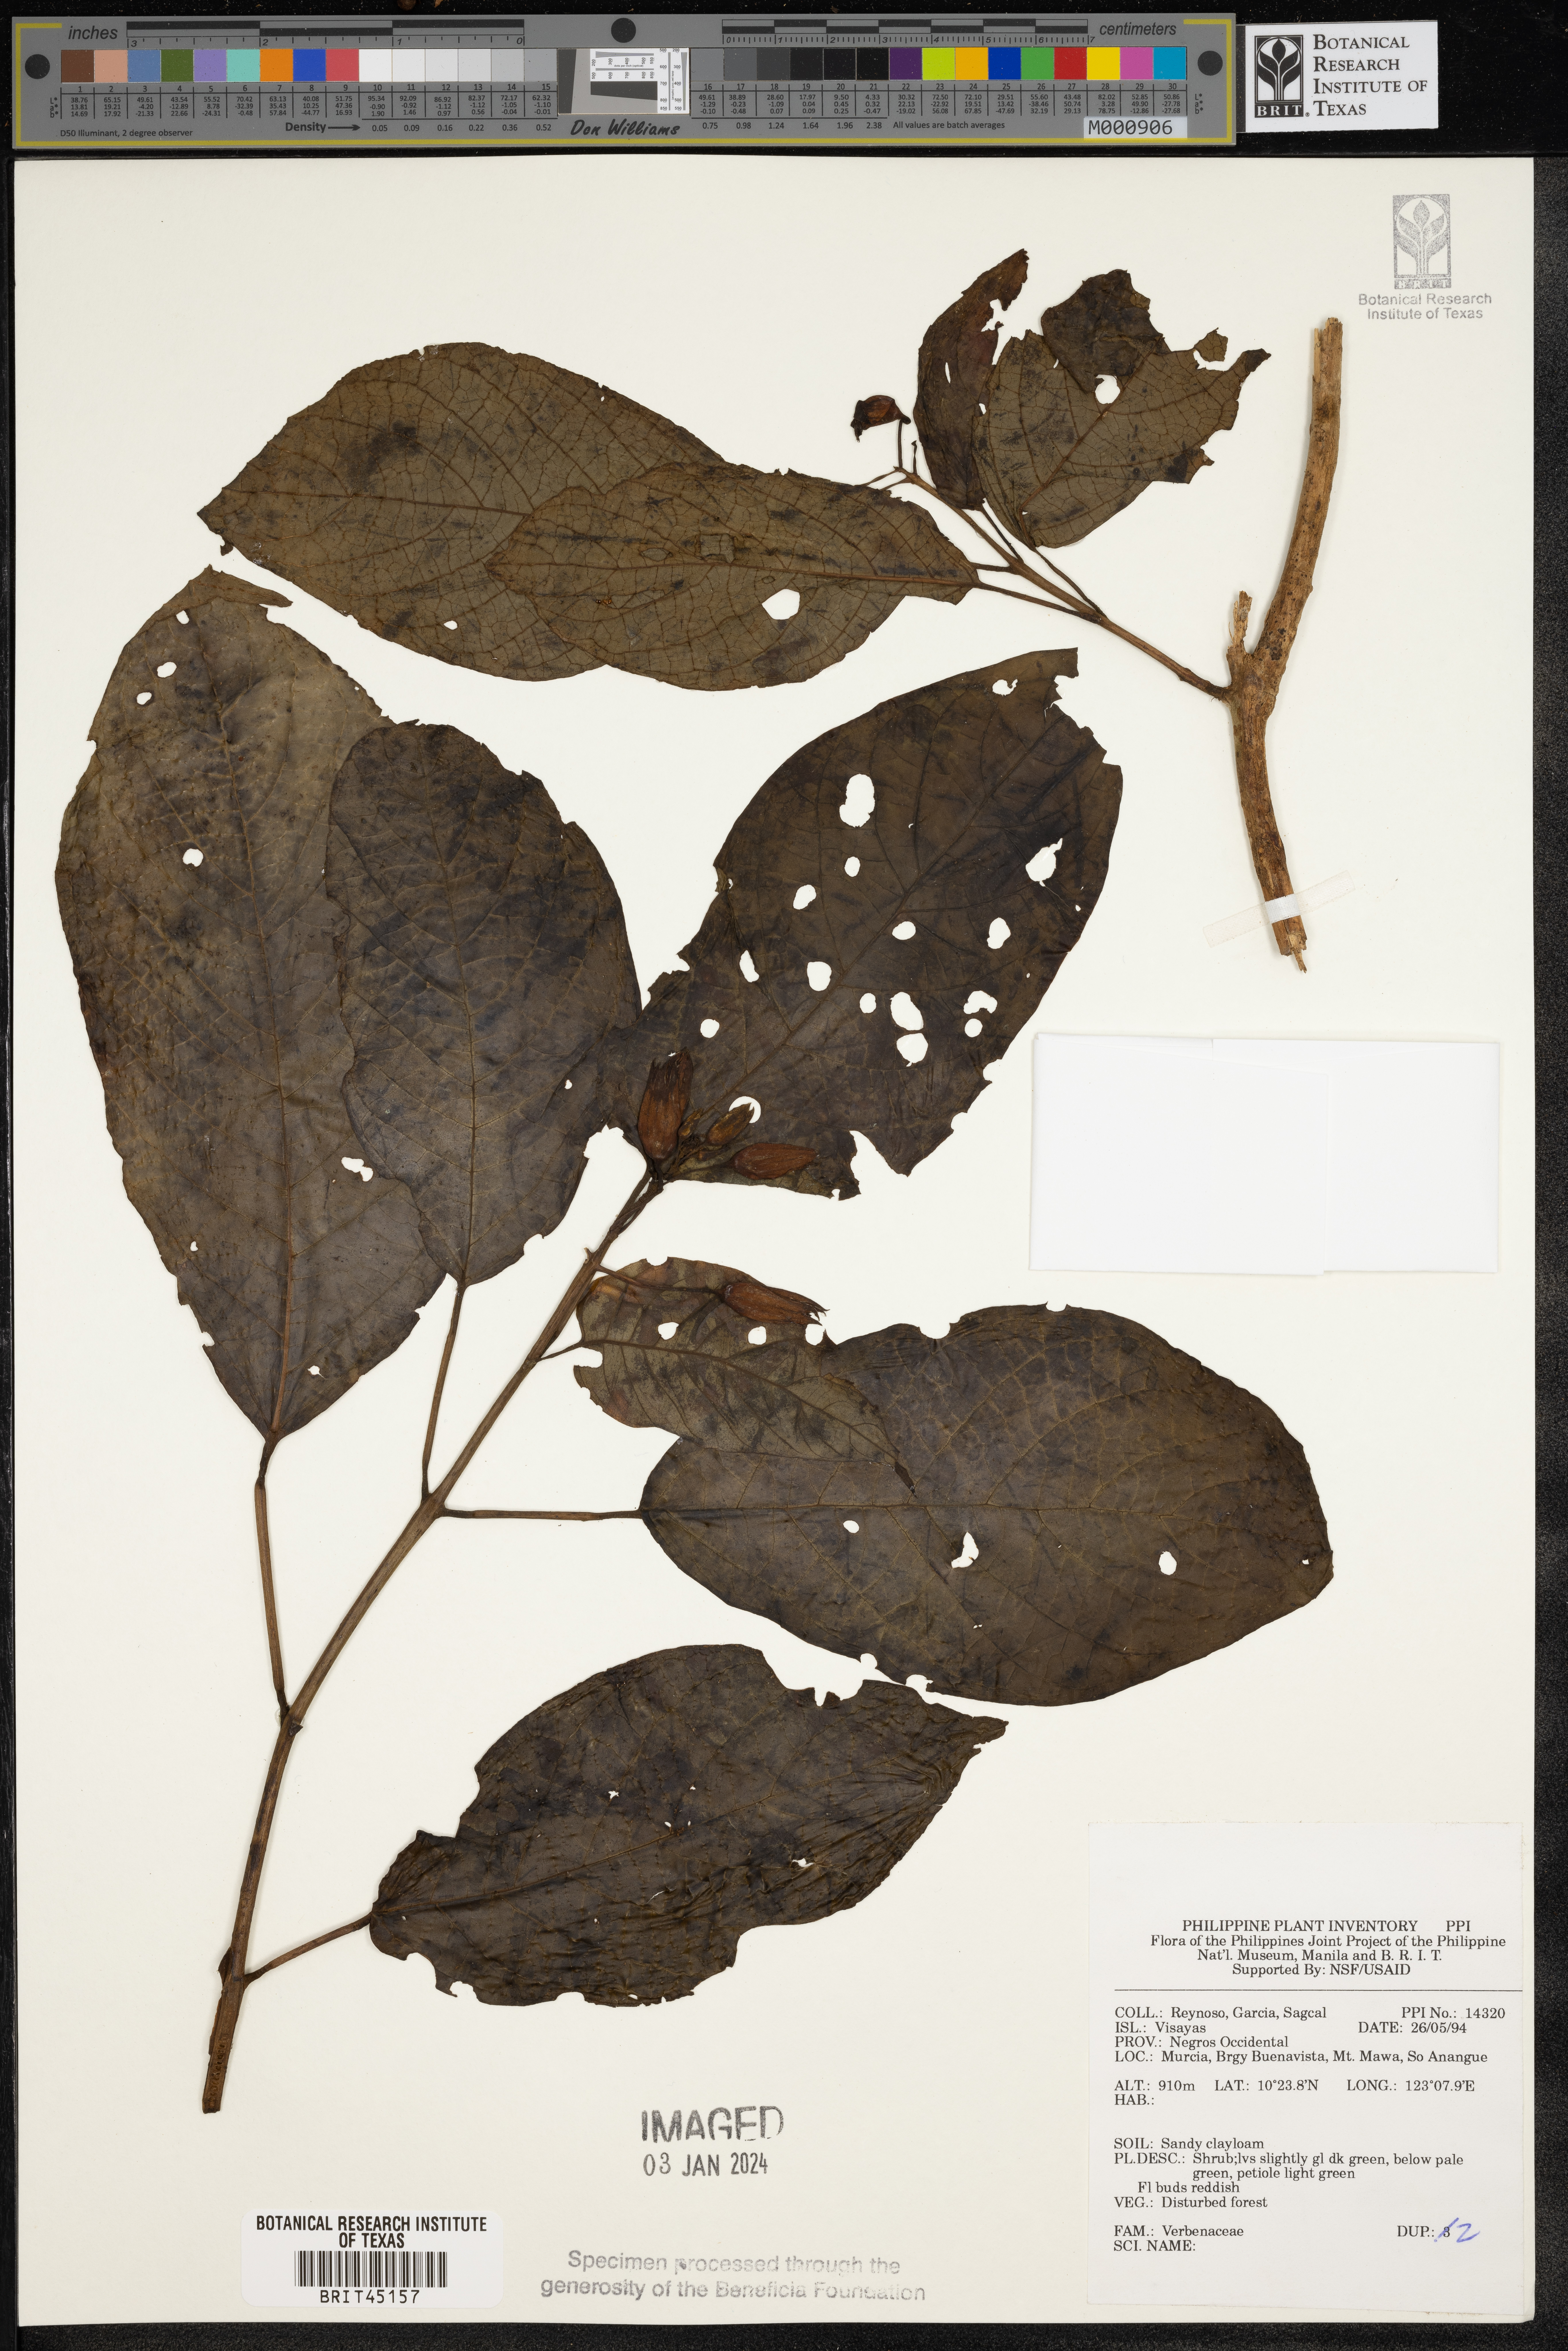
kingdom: Plantae
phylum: Tracheophyta
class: Magnoliopsida
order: Lamiales
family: Verbenaceae
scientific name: Verbenaceae
